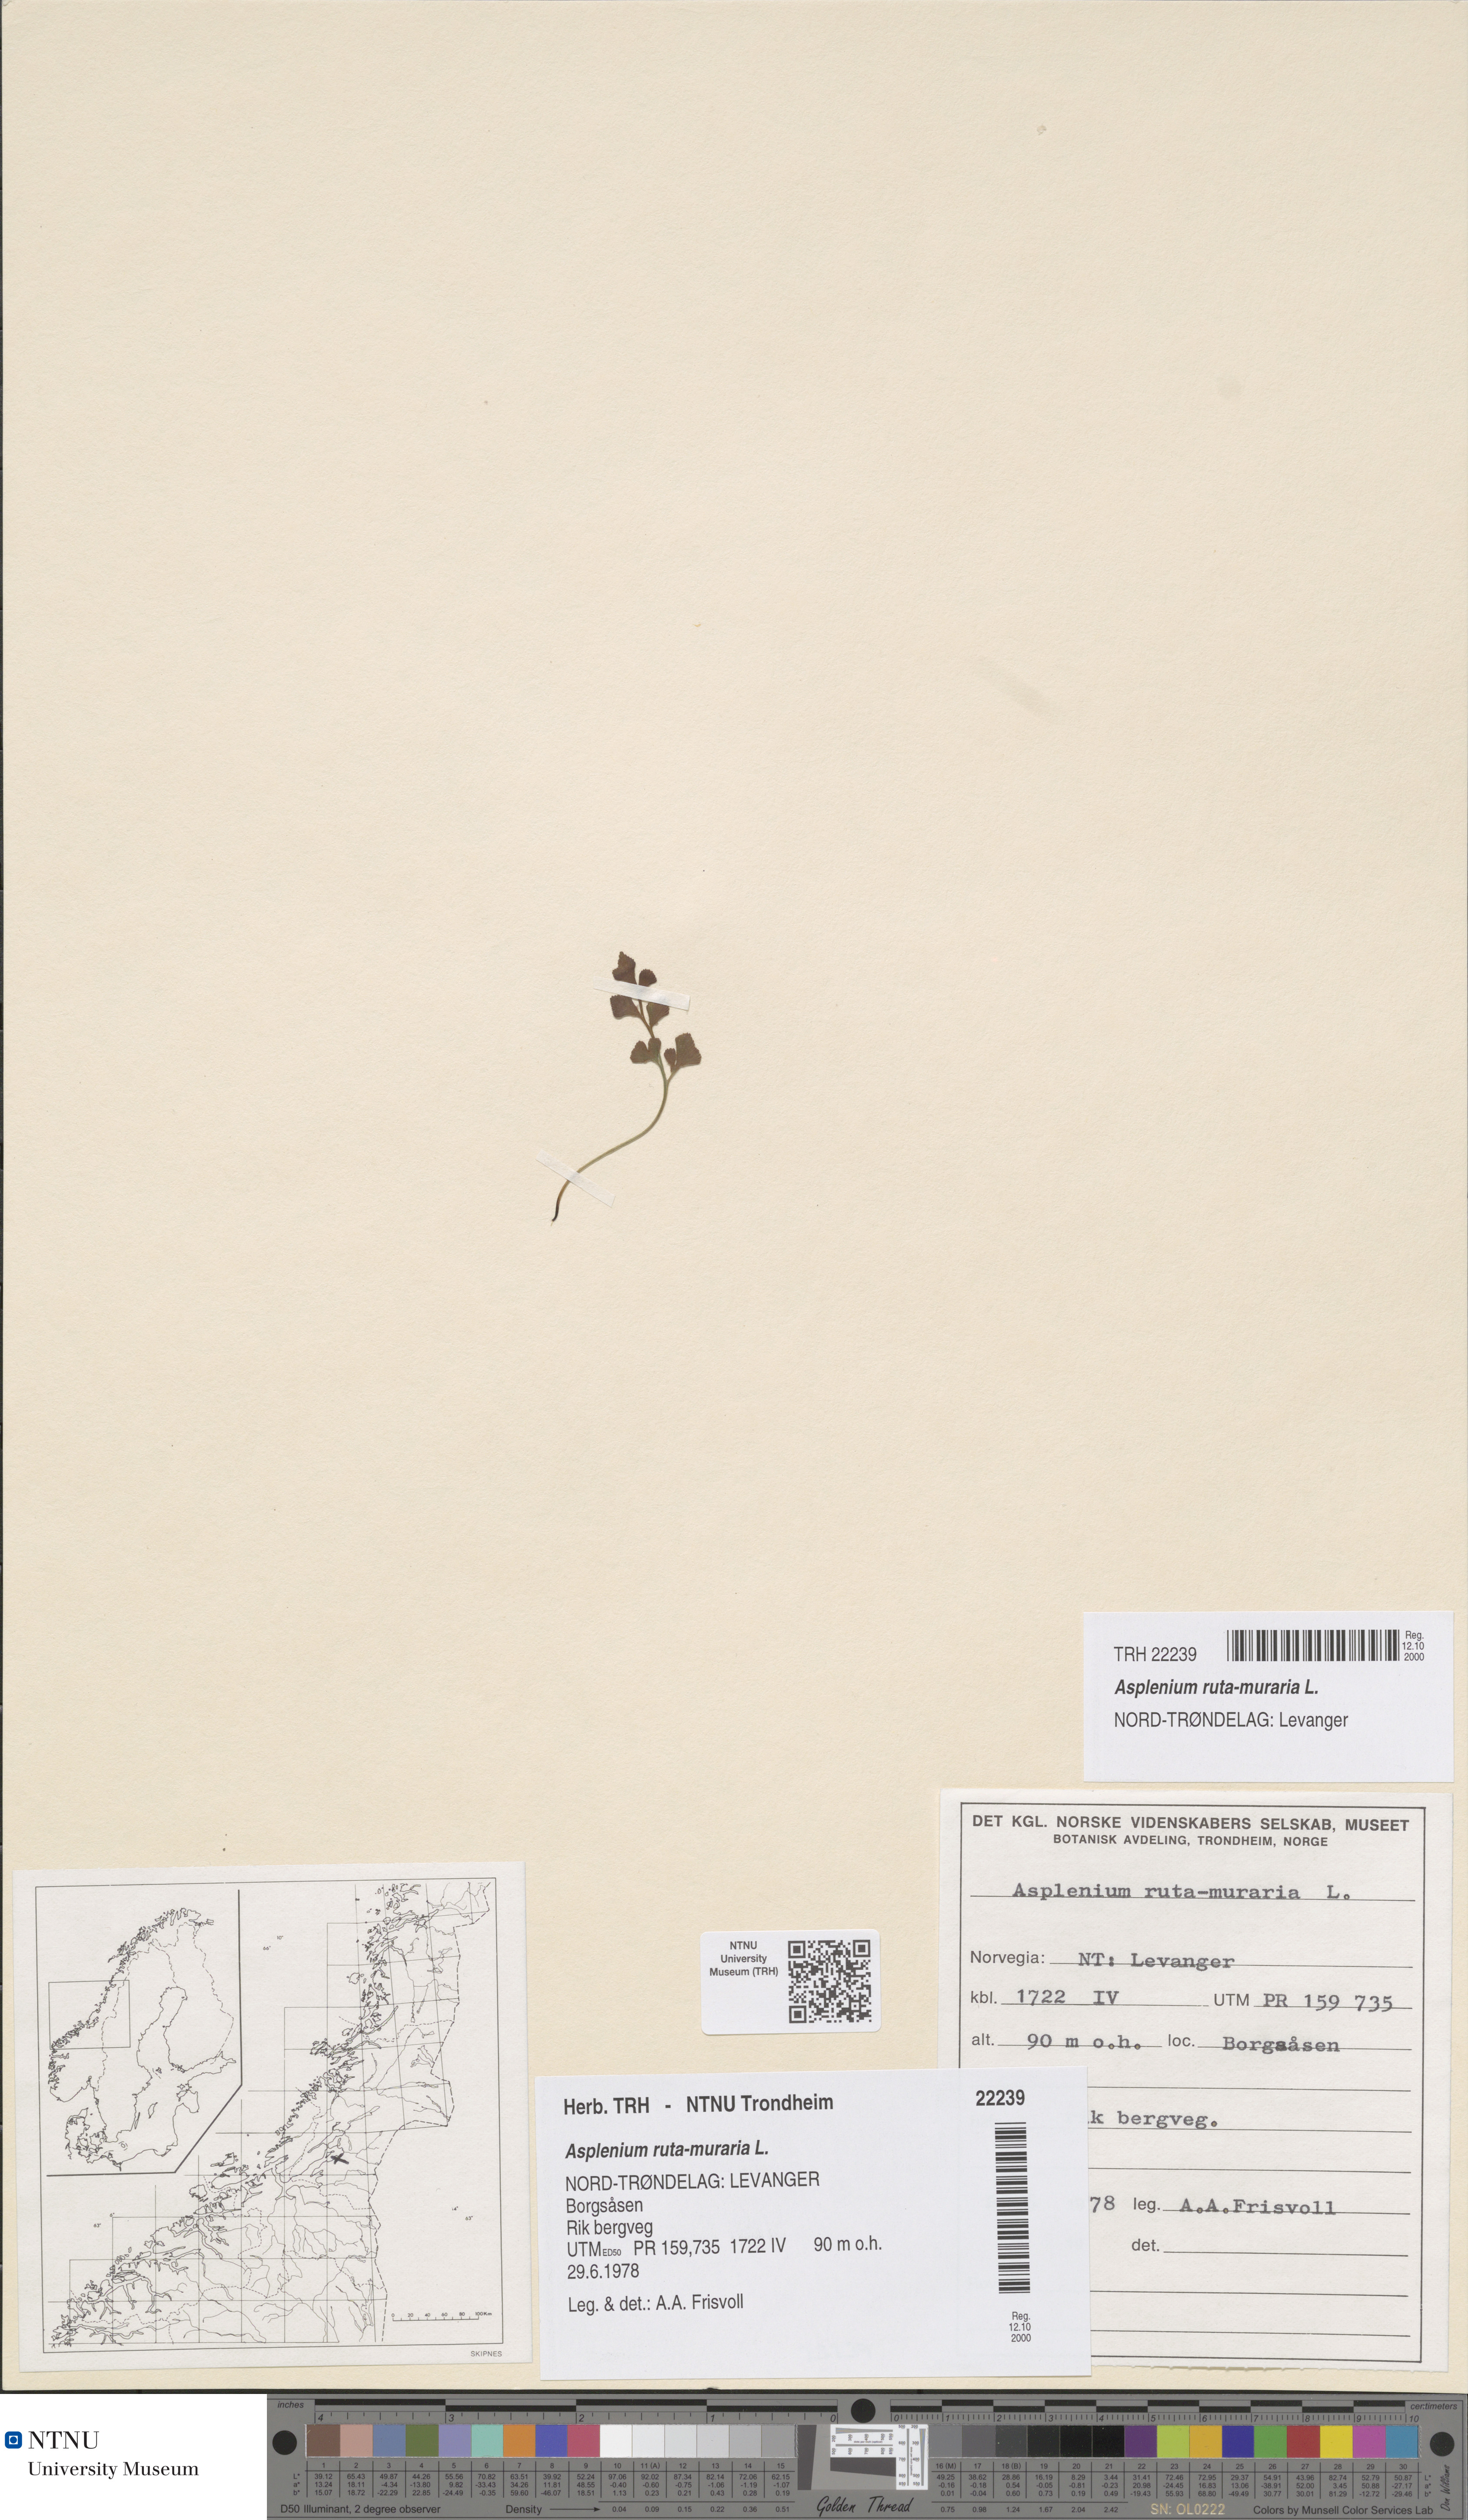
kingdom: Plantae
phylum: Tracheophyta
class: Polypodiopsida
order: Polypodiales
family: Aspleniaceae
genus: Asplenium
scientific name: Asplenium ruta-muraria
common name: Wall-rue
